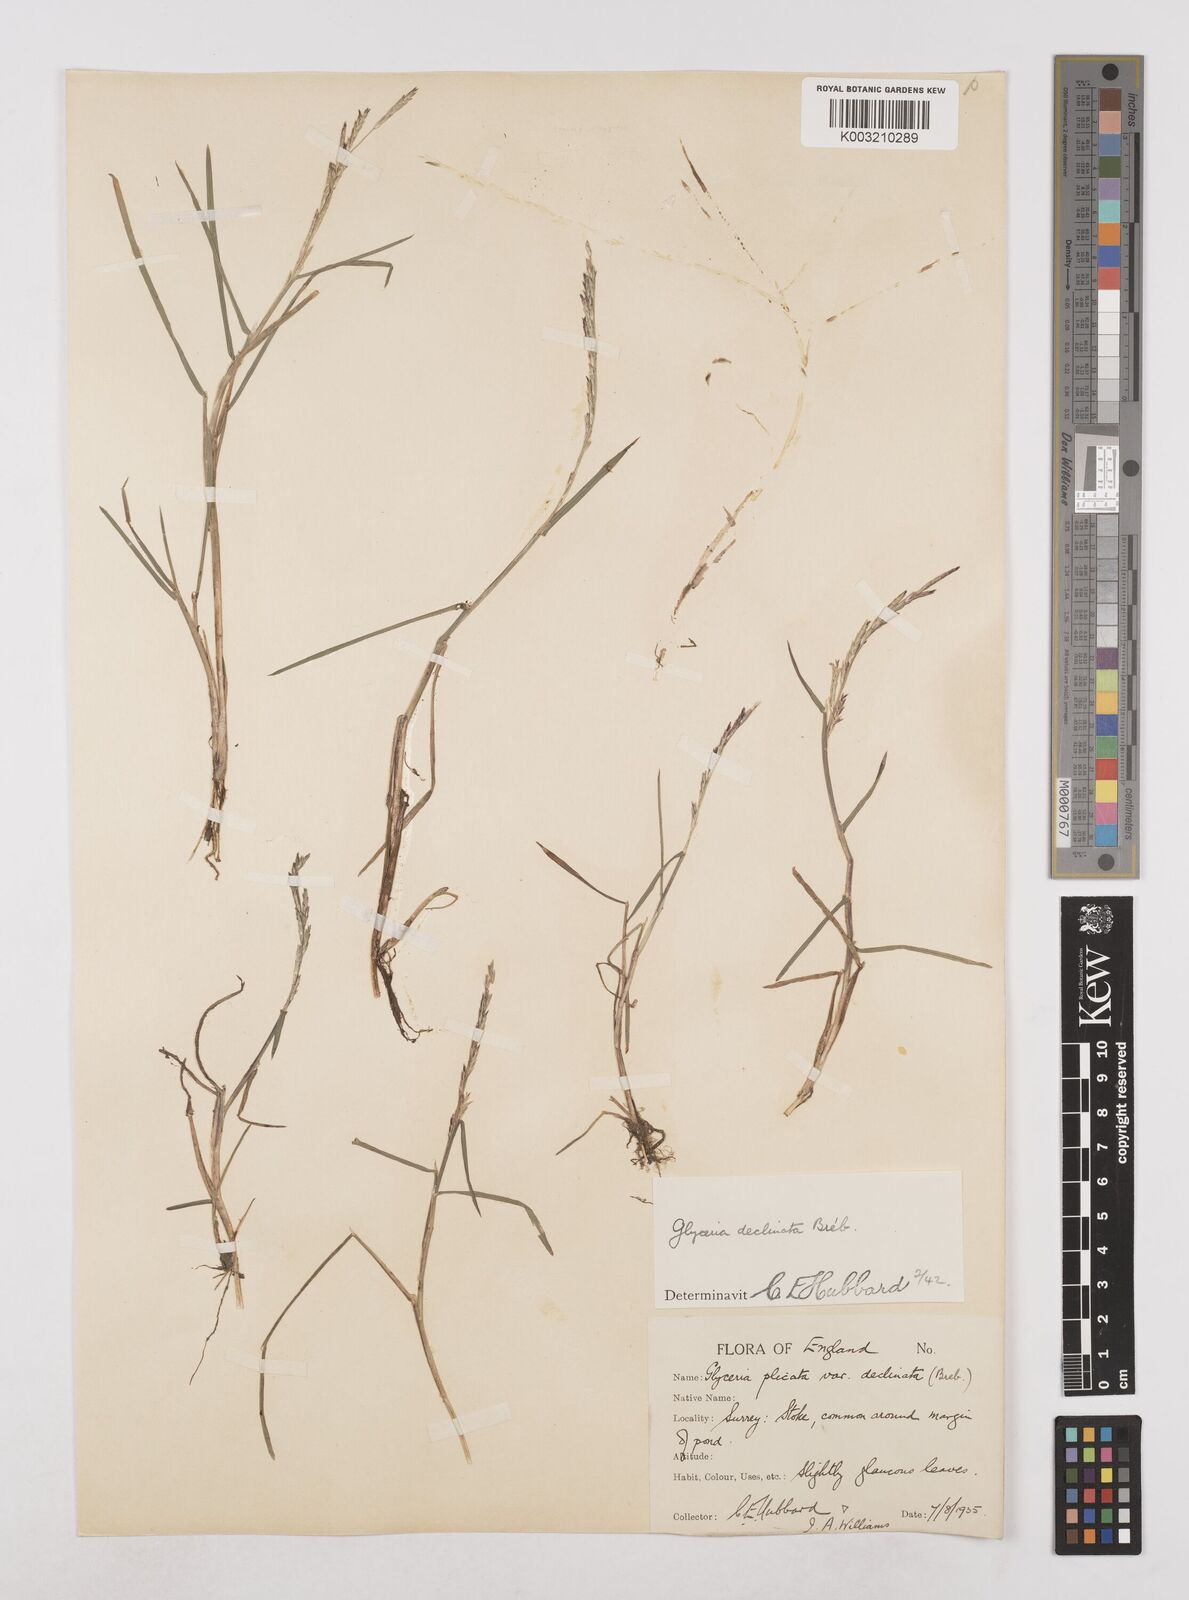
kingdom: Plantae
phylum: Tracheophyta
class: Liliopsida
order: Poales
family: Poaceae
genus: Glyceria
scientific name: Glyceria declinata
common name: Small sweet-grass
